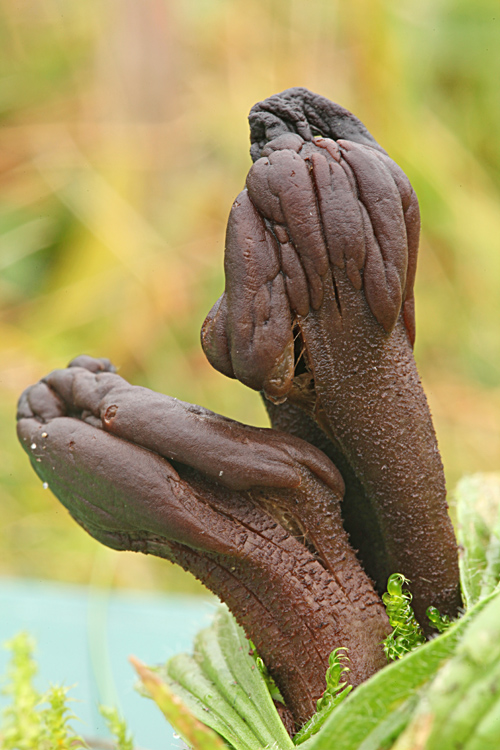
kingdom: Fungi
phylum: Ascomycota
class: Geoglossomycetes
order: Geoglossales
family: Geoglossaceae
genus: Geoglossum
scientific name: Geoglossum atropurpureum
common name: purpursort farvetunge
